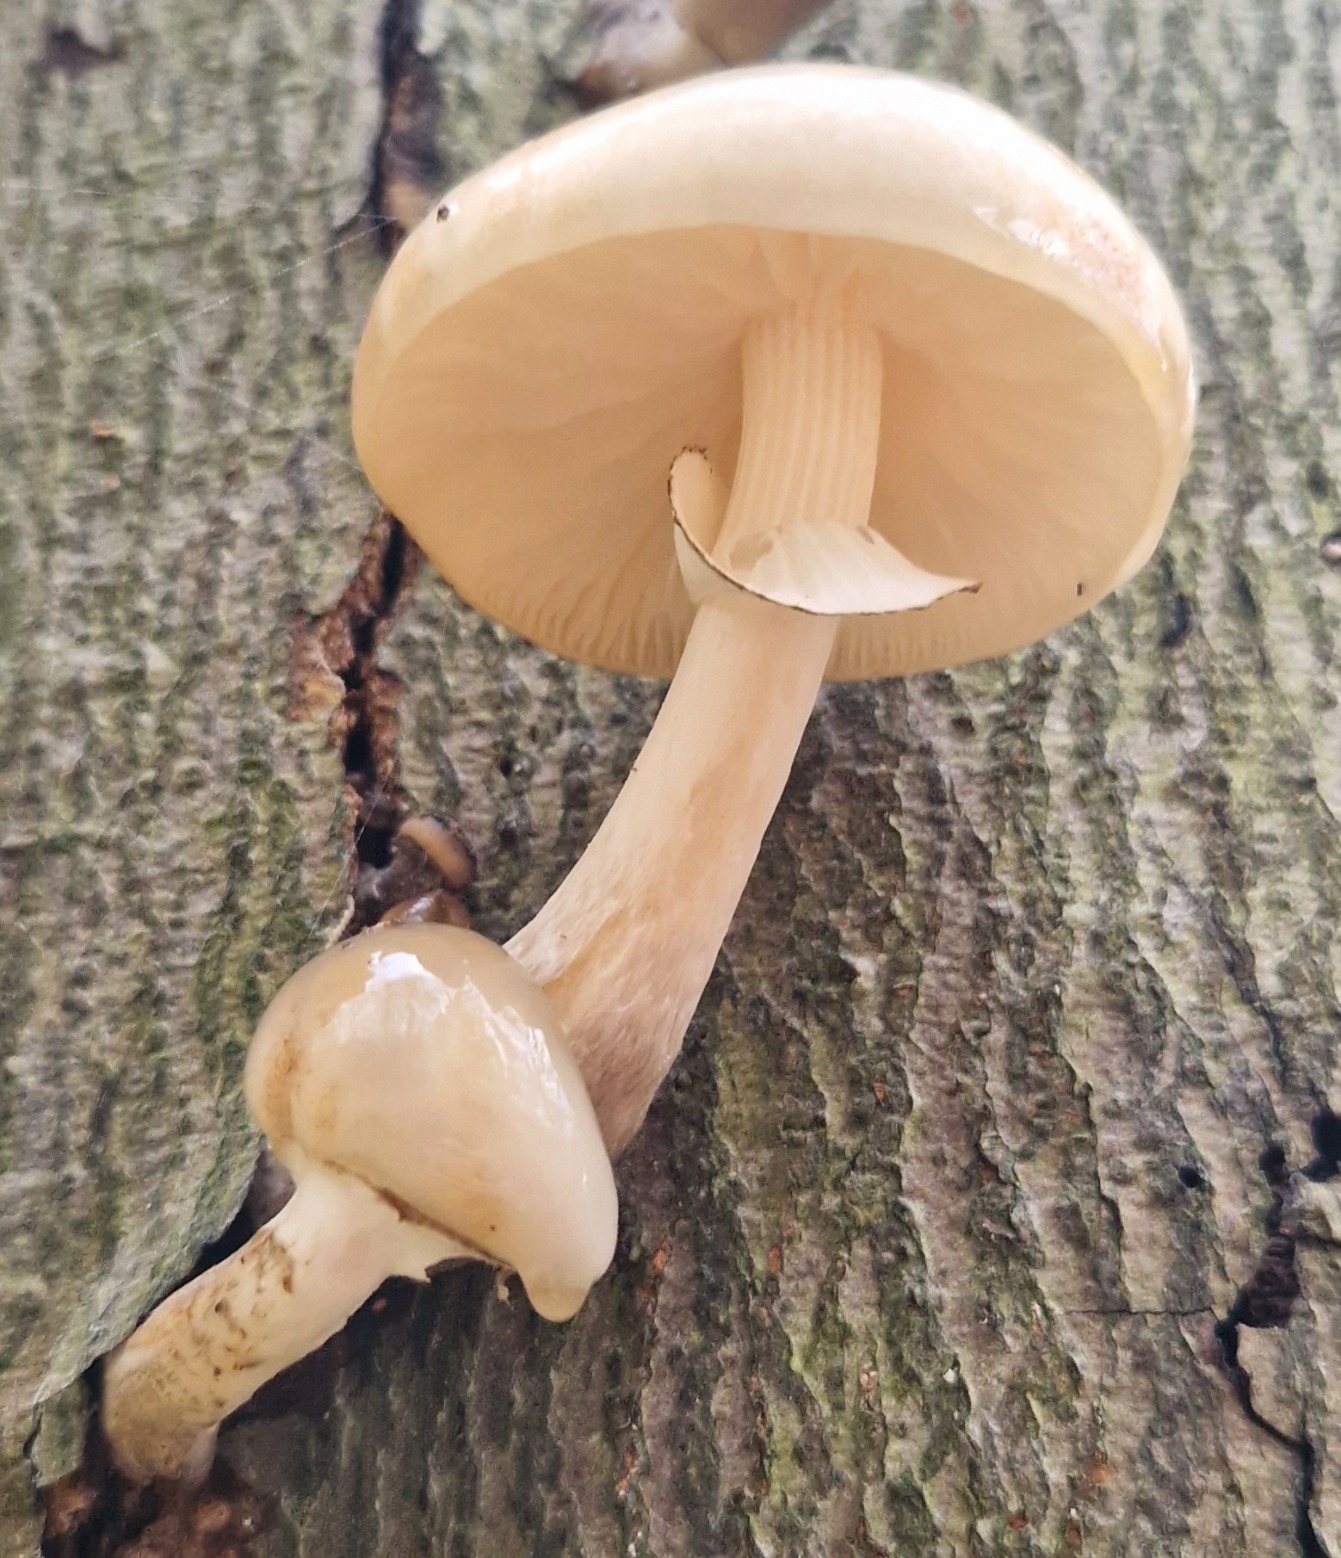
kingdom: Fungi
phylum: Basidiomycota
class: Agaricomycetes
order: Agaricales
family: Physalacriaceae
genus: Mucidula
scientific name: Mucidula mucida
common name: Porcelænshat
